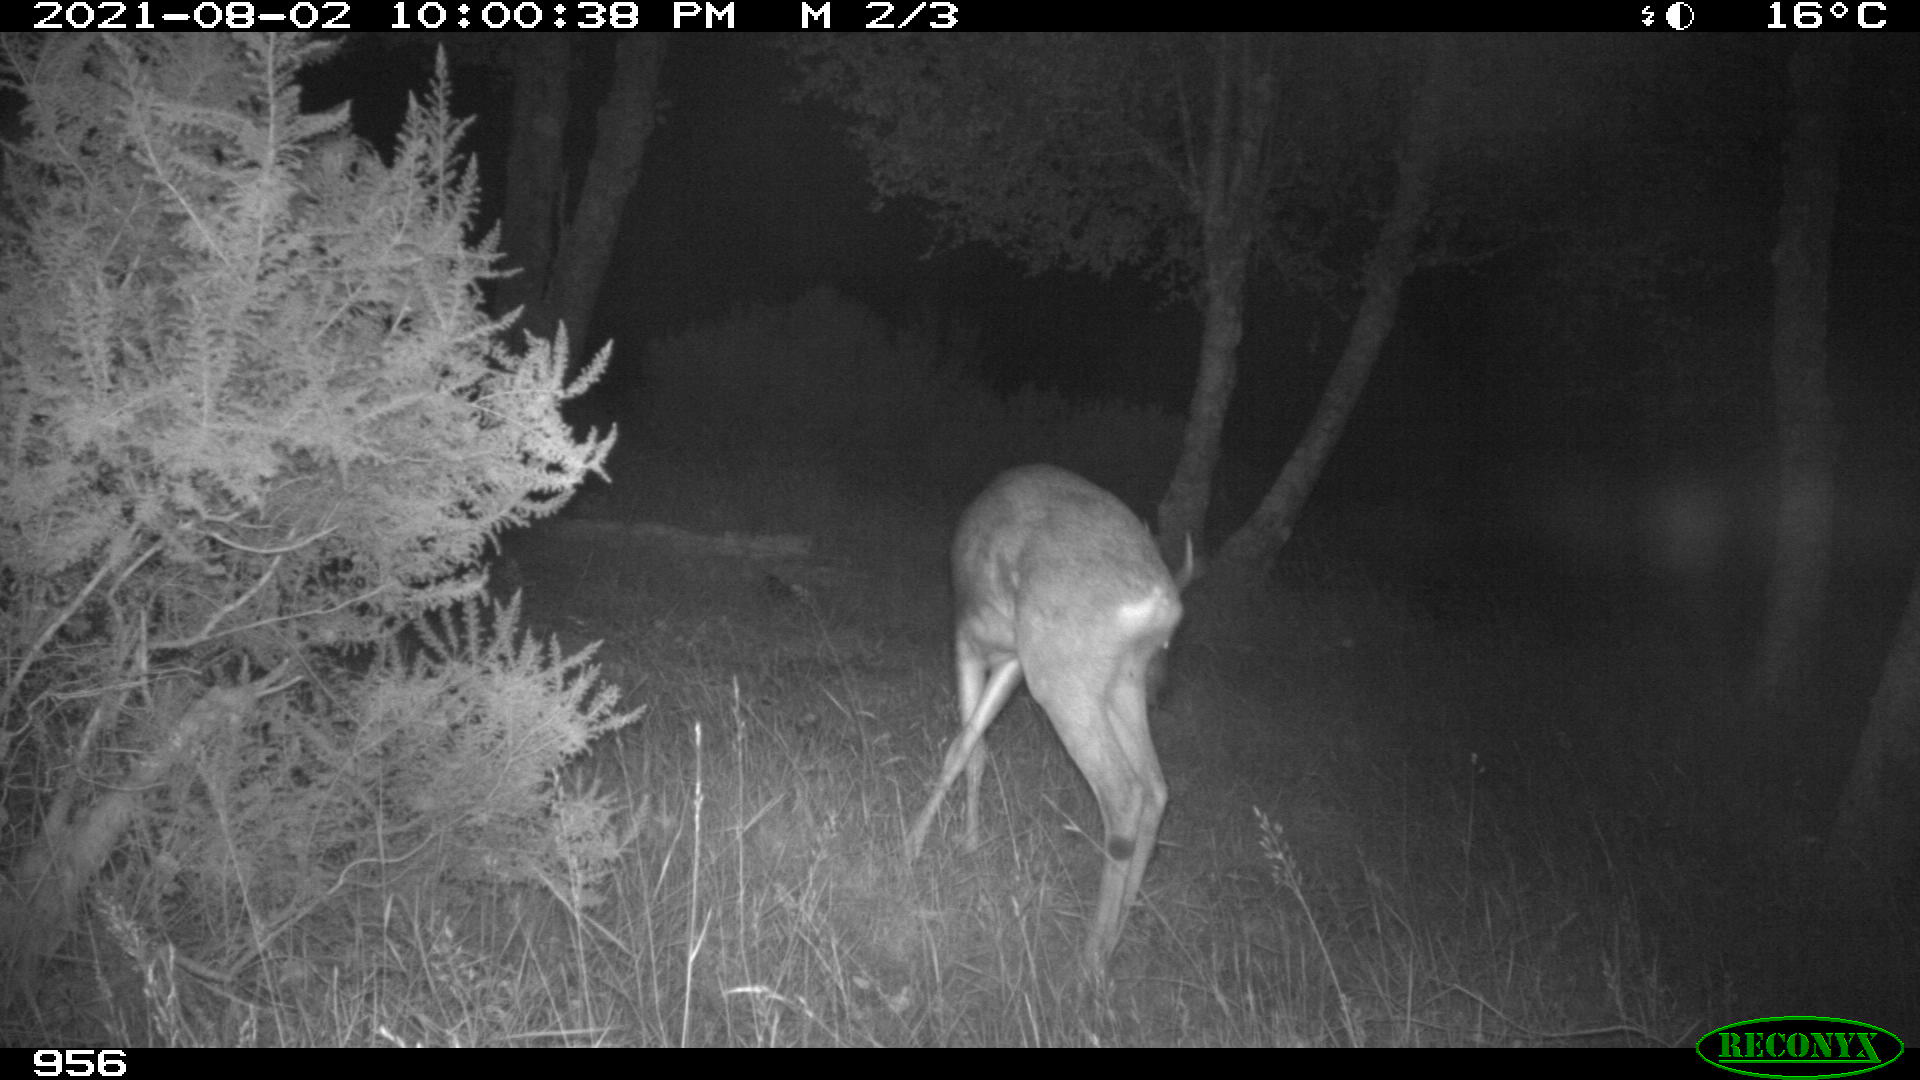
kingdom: Animalia
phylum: Chordata
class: Mammalia
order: Artiodactyla
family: Cervidae
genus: Capreolus
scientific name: Capreolus capreolus
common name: Western roe deer
